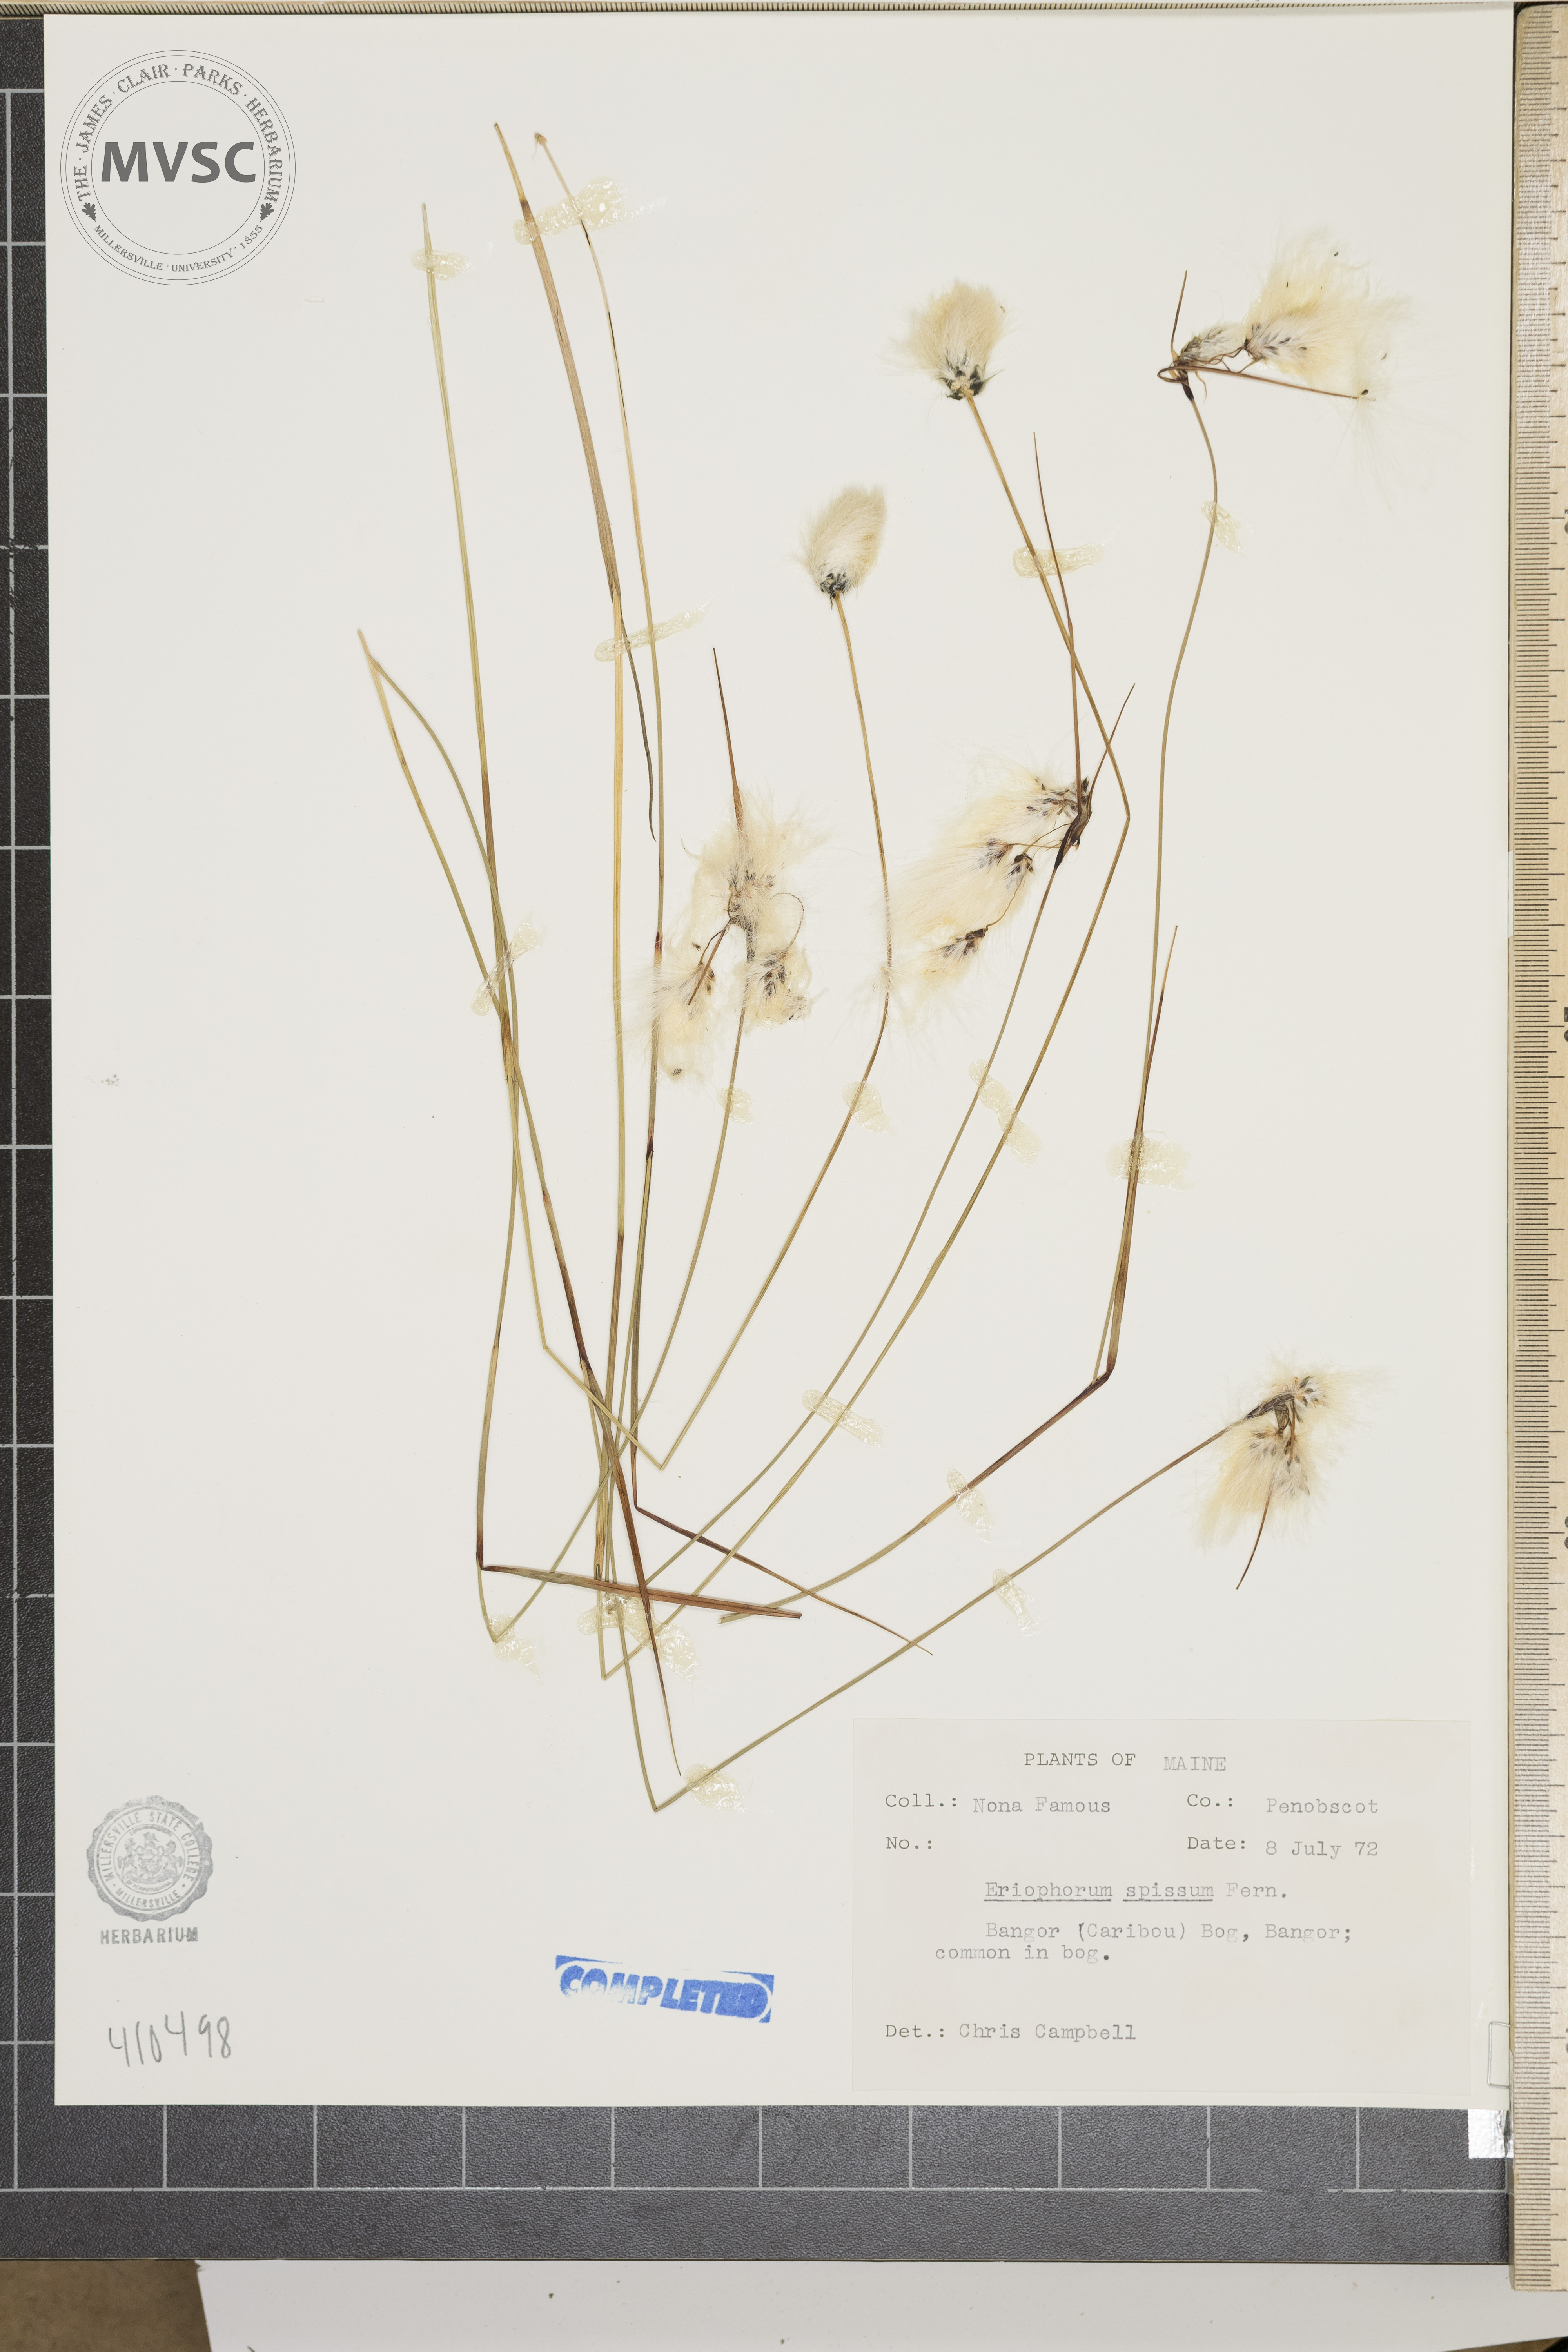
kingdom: Plantae
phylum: Tracheophyta
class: Liliopsida
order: Poales
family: Cyperaceae
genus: Eriophorum
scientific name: Eriophorum vaginatum
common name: Hare's-tail cottongrass
